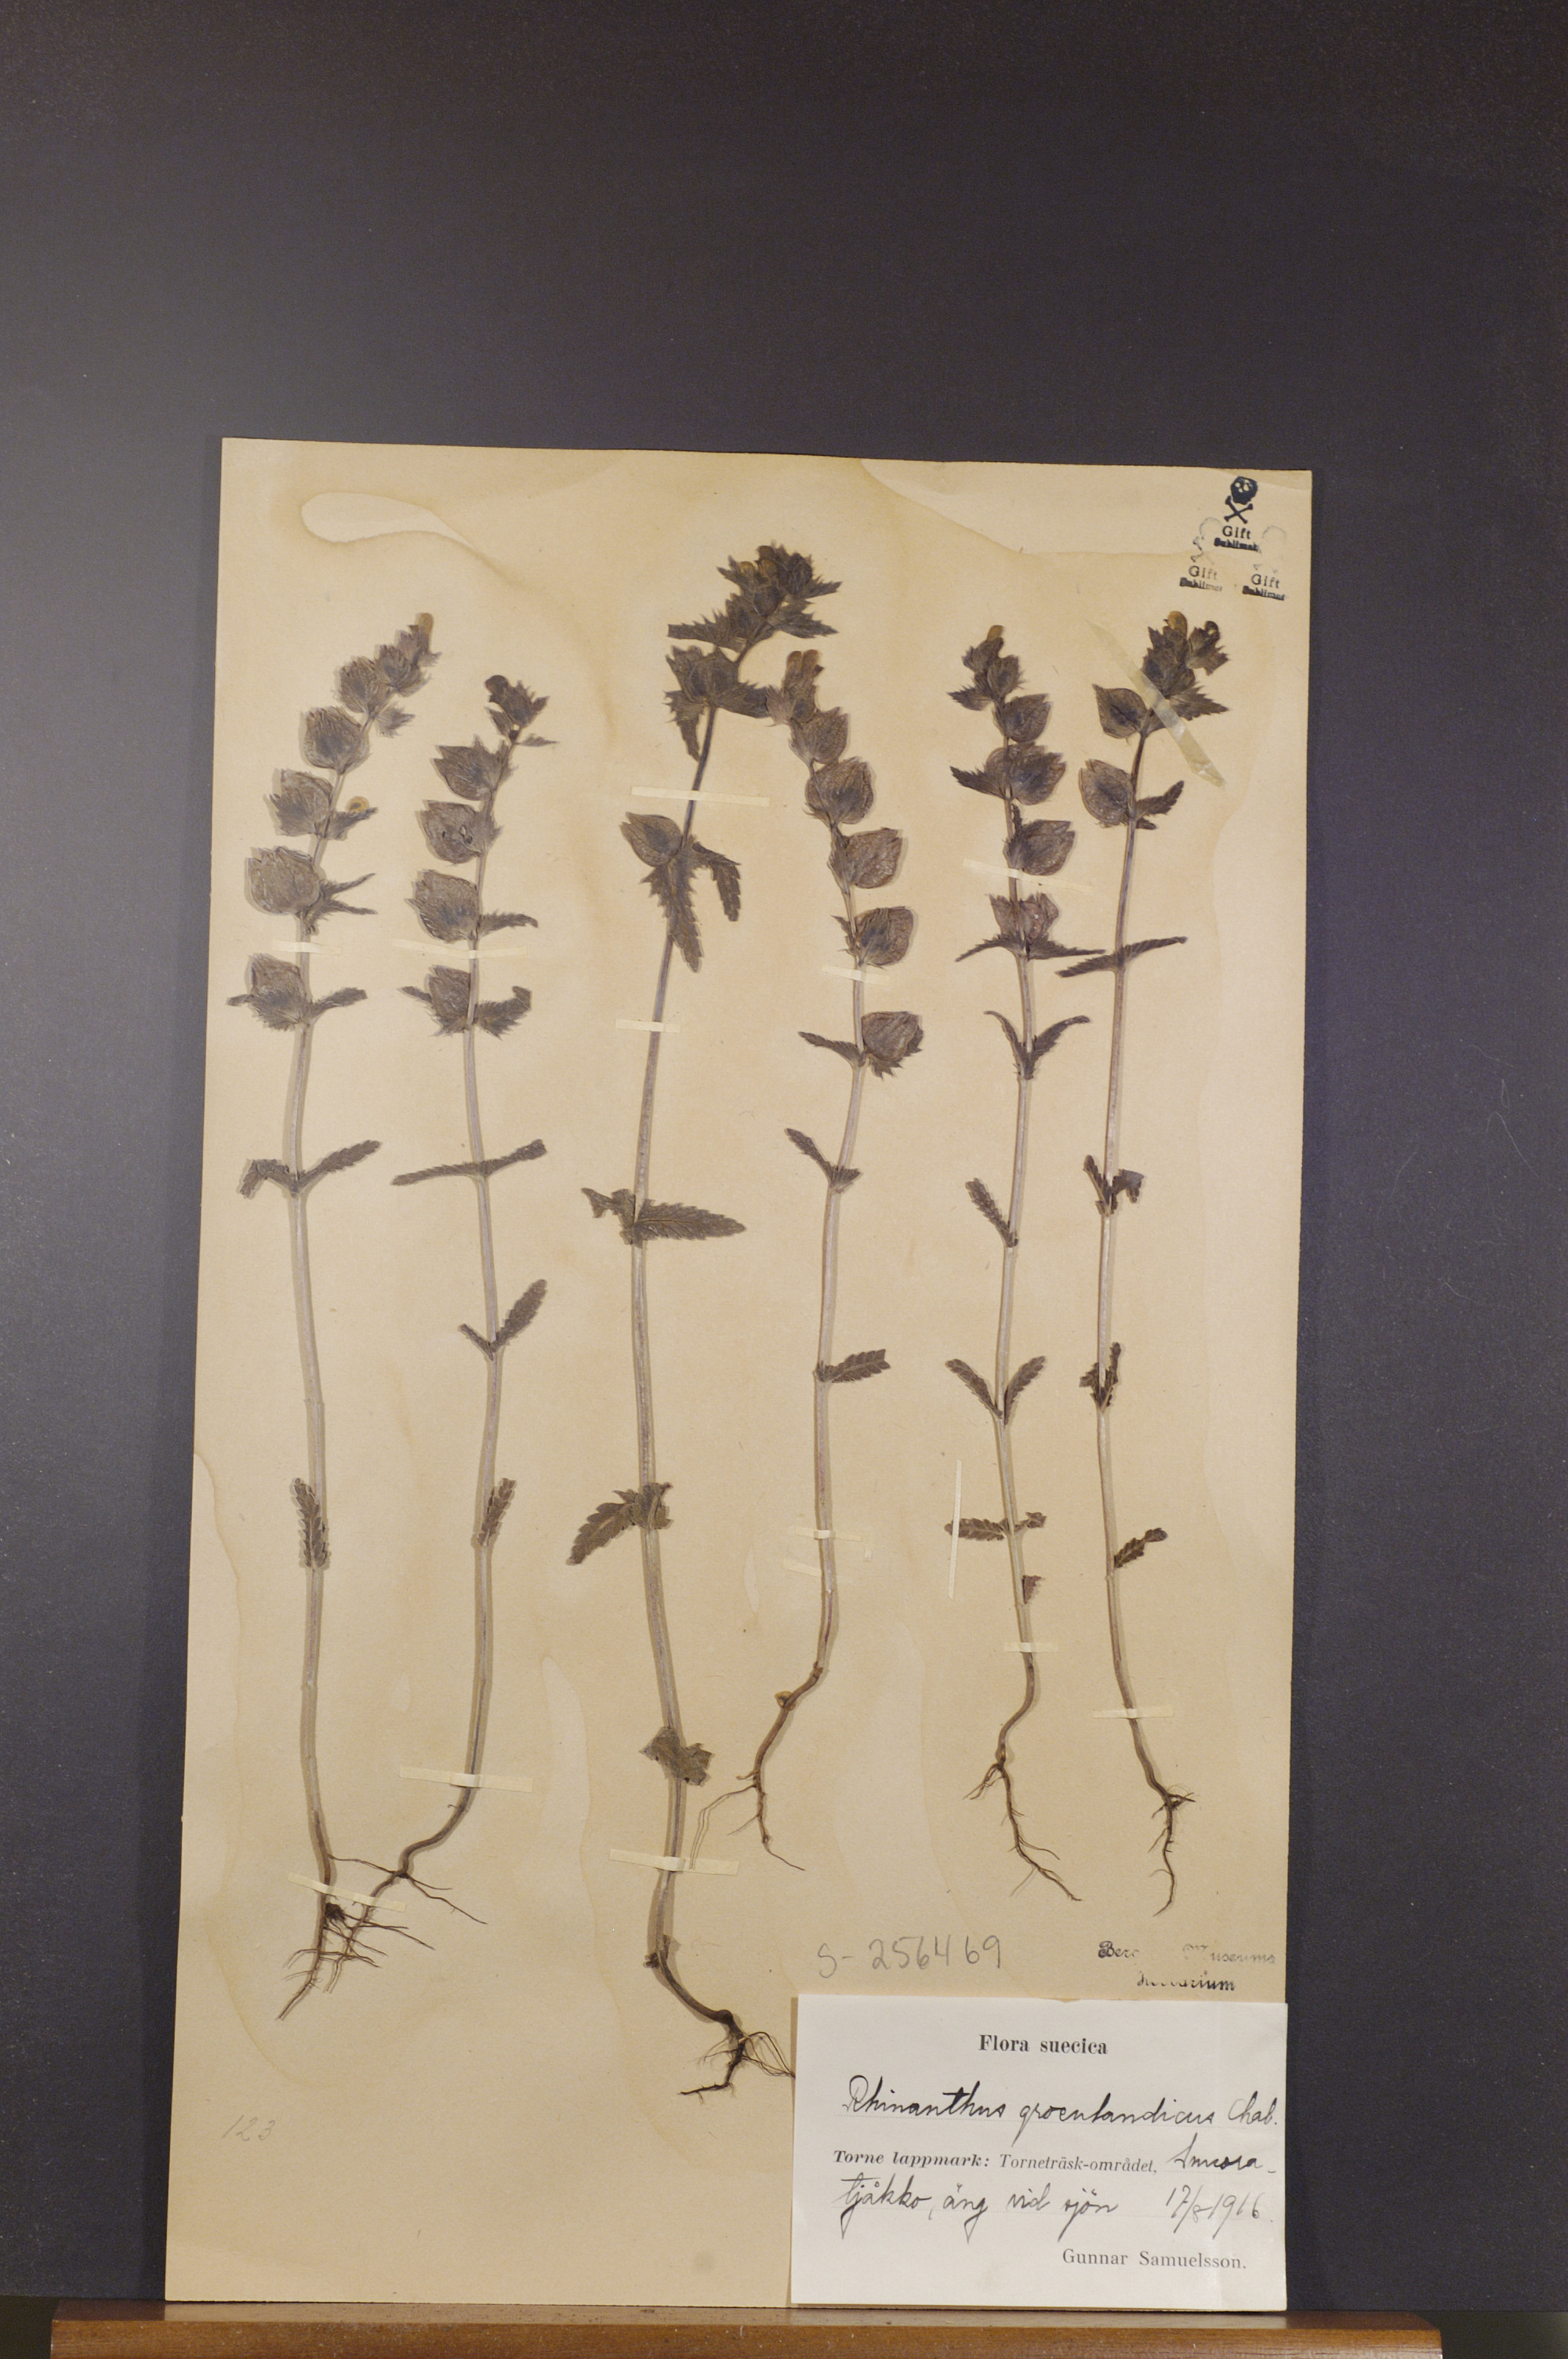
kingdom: Plantae
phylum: Tracheophyta
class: Magnoliopsida
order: Lamiales
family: Orobanchaceae
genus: Rhinanthus
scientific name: Rhinanthus groenlandicus
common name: Little yellow rattle
